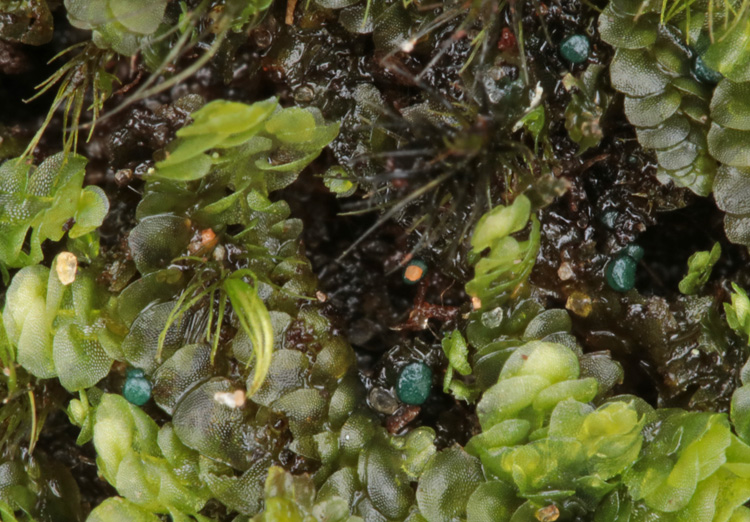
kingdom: Fungi
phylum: Ascomycota
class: Leotiomycetes
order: Leotiales
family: Mniaeciaceae
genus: Mniaecia
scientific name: Mniaecia jungermanniae
